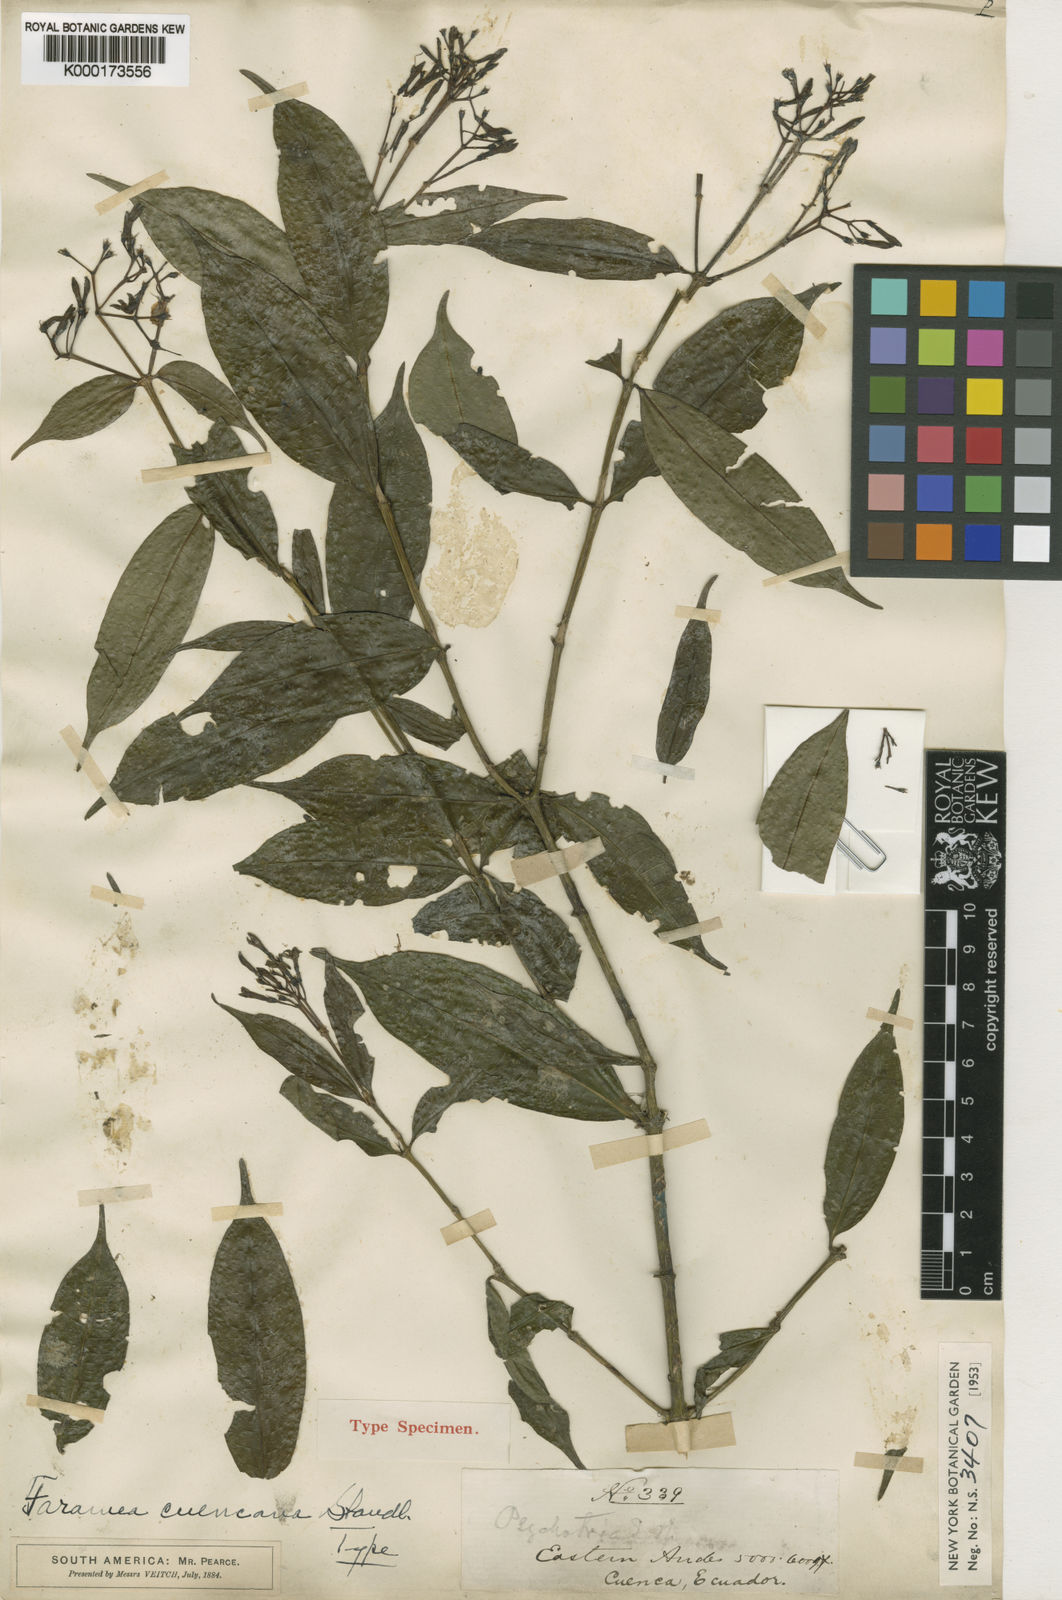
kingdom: Plantae
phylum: Tracheophyta
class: Magnoliopsida
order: Gentianales
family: Rubiaceae
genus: Faramea
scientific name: Faramea cuencana
